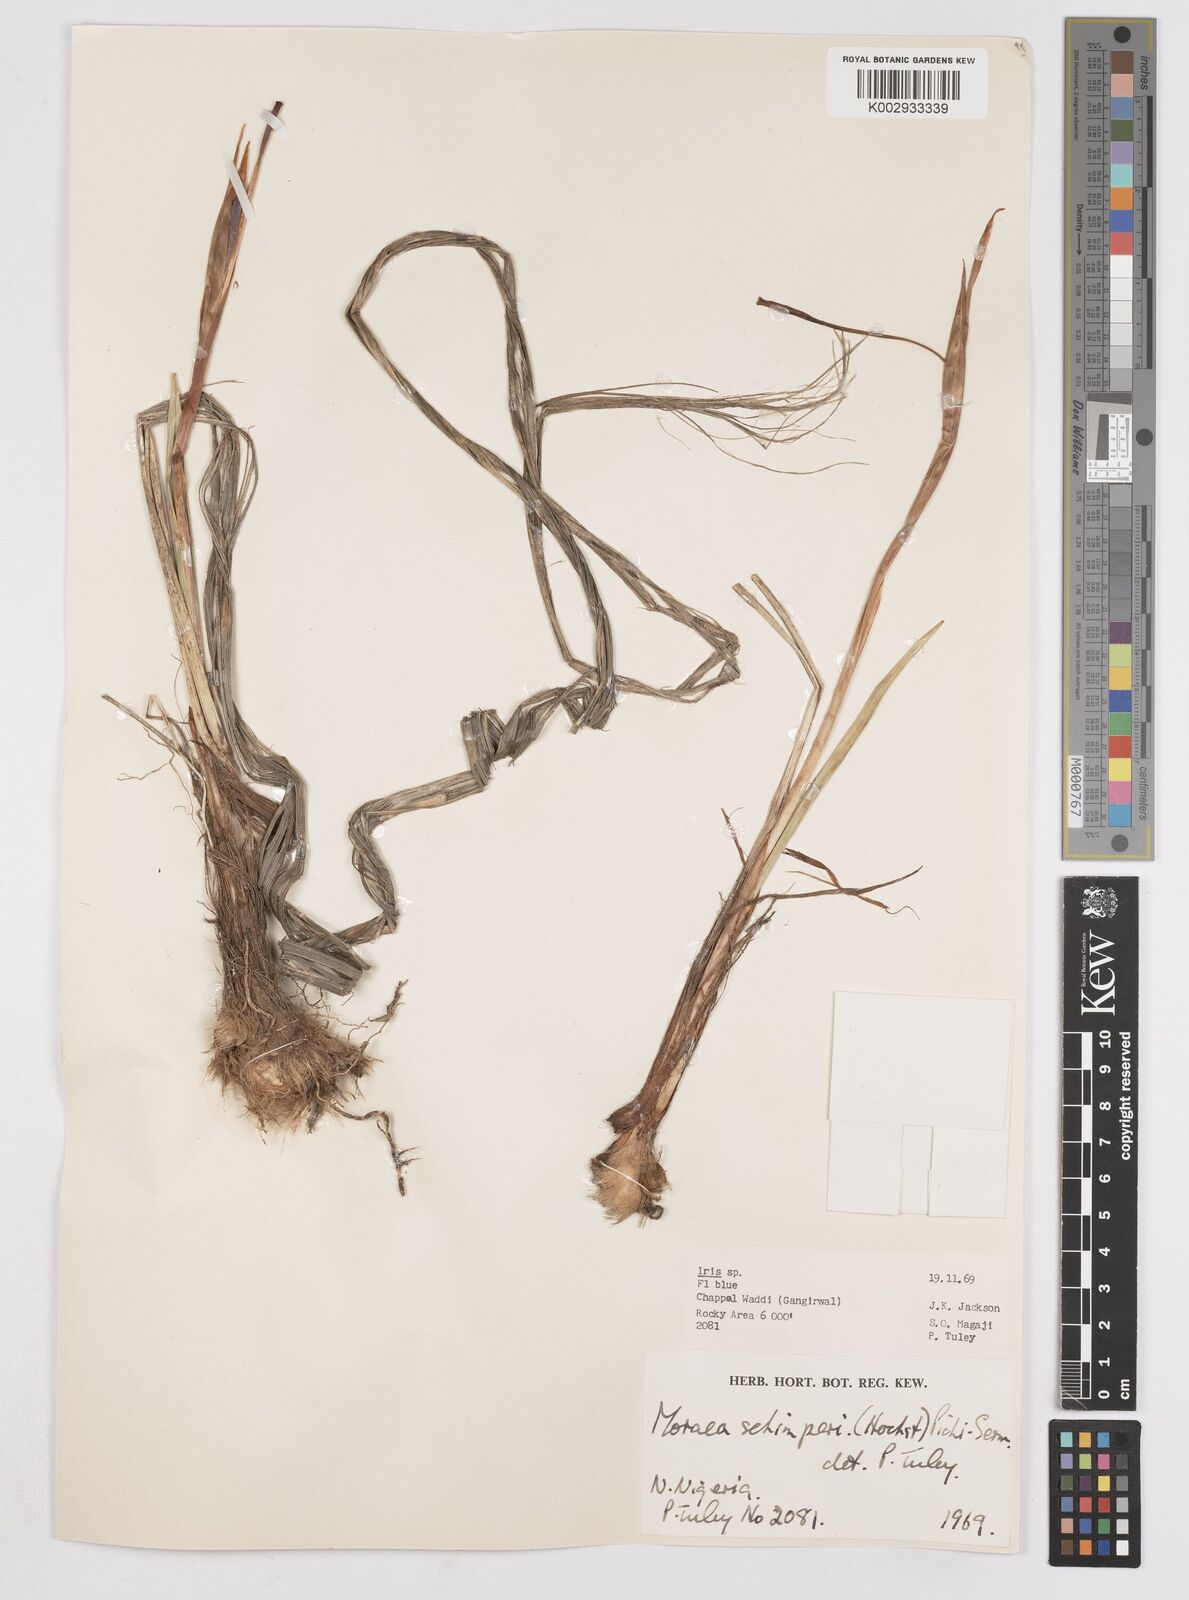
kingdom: Plantae
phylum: Tracheophyta
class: Liliopsida
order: Asparagales
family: Iridaceae
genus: Moraea
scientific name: Moraea schimperi
